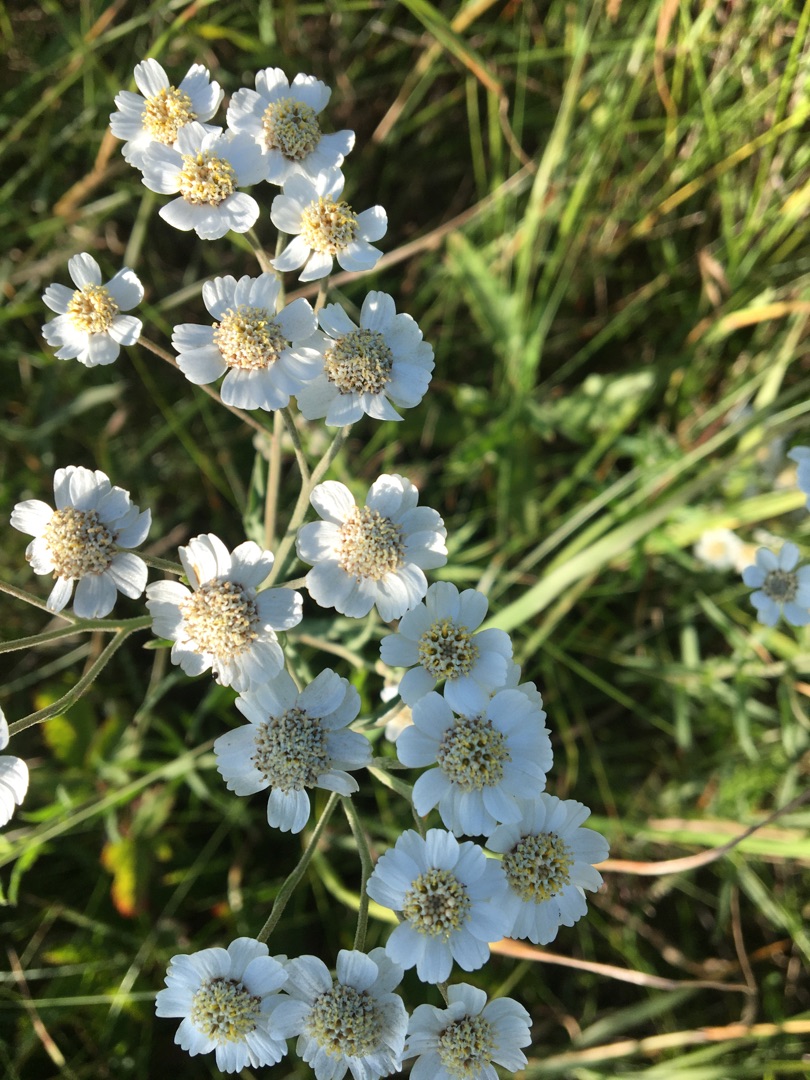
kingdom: Plantae
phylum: Tracheophyta
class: Magnoliopsida
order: Asterales
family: Asteraceae
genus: Achillea
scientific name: Achillea ptarmica
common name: Nyse-røllike
